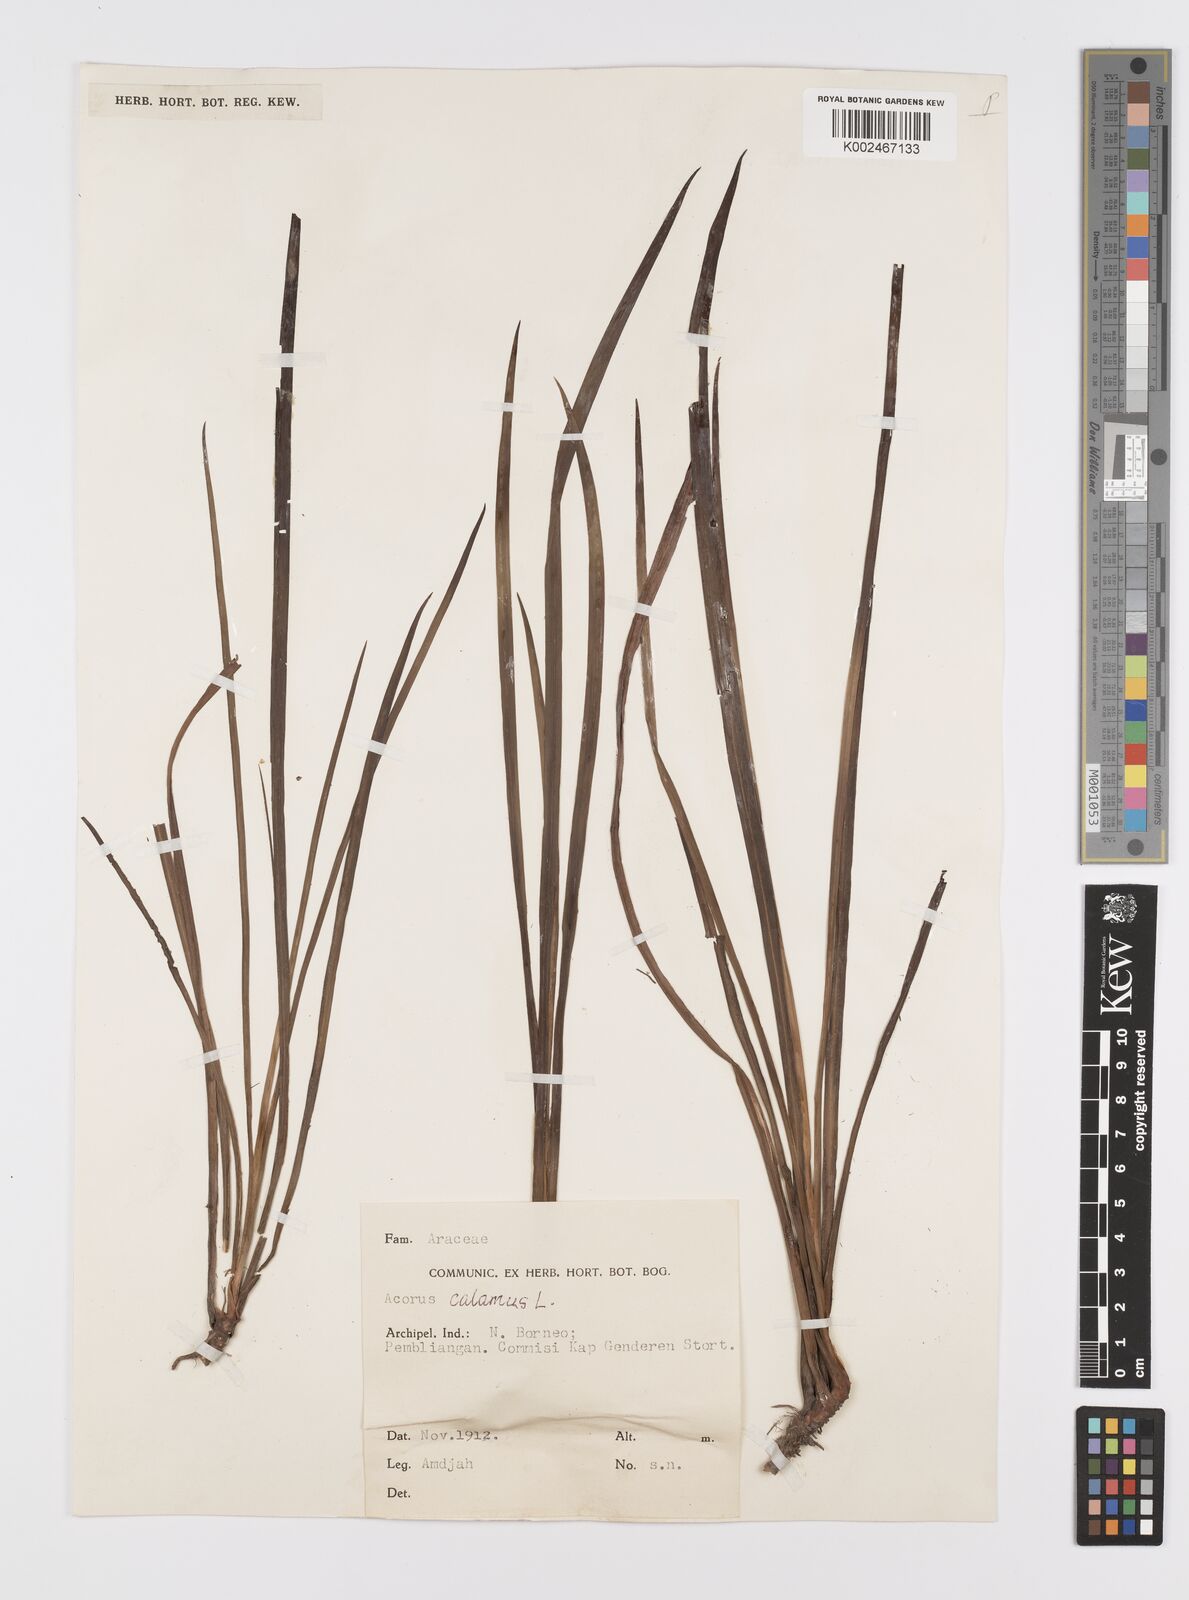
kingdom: Plantae
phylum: Tracheophyta
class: Liliopsida
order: Acorales
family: Acoraceae
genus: Acorus
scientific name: Acorus
